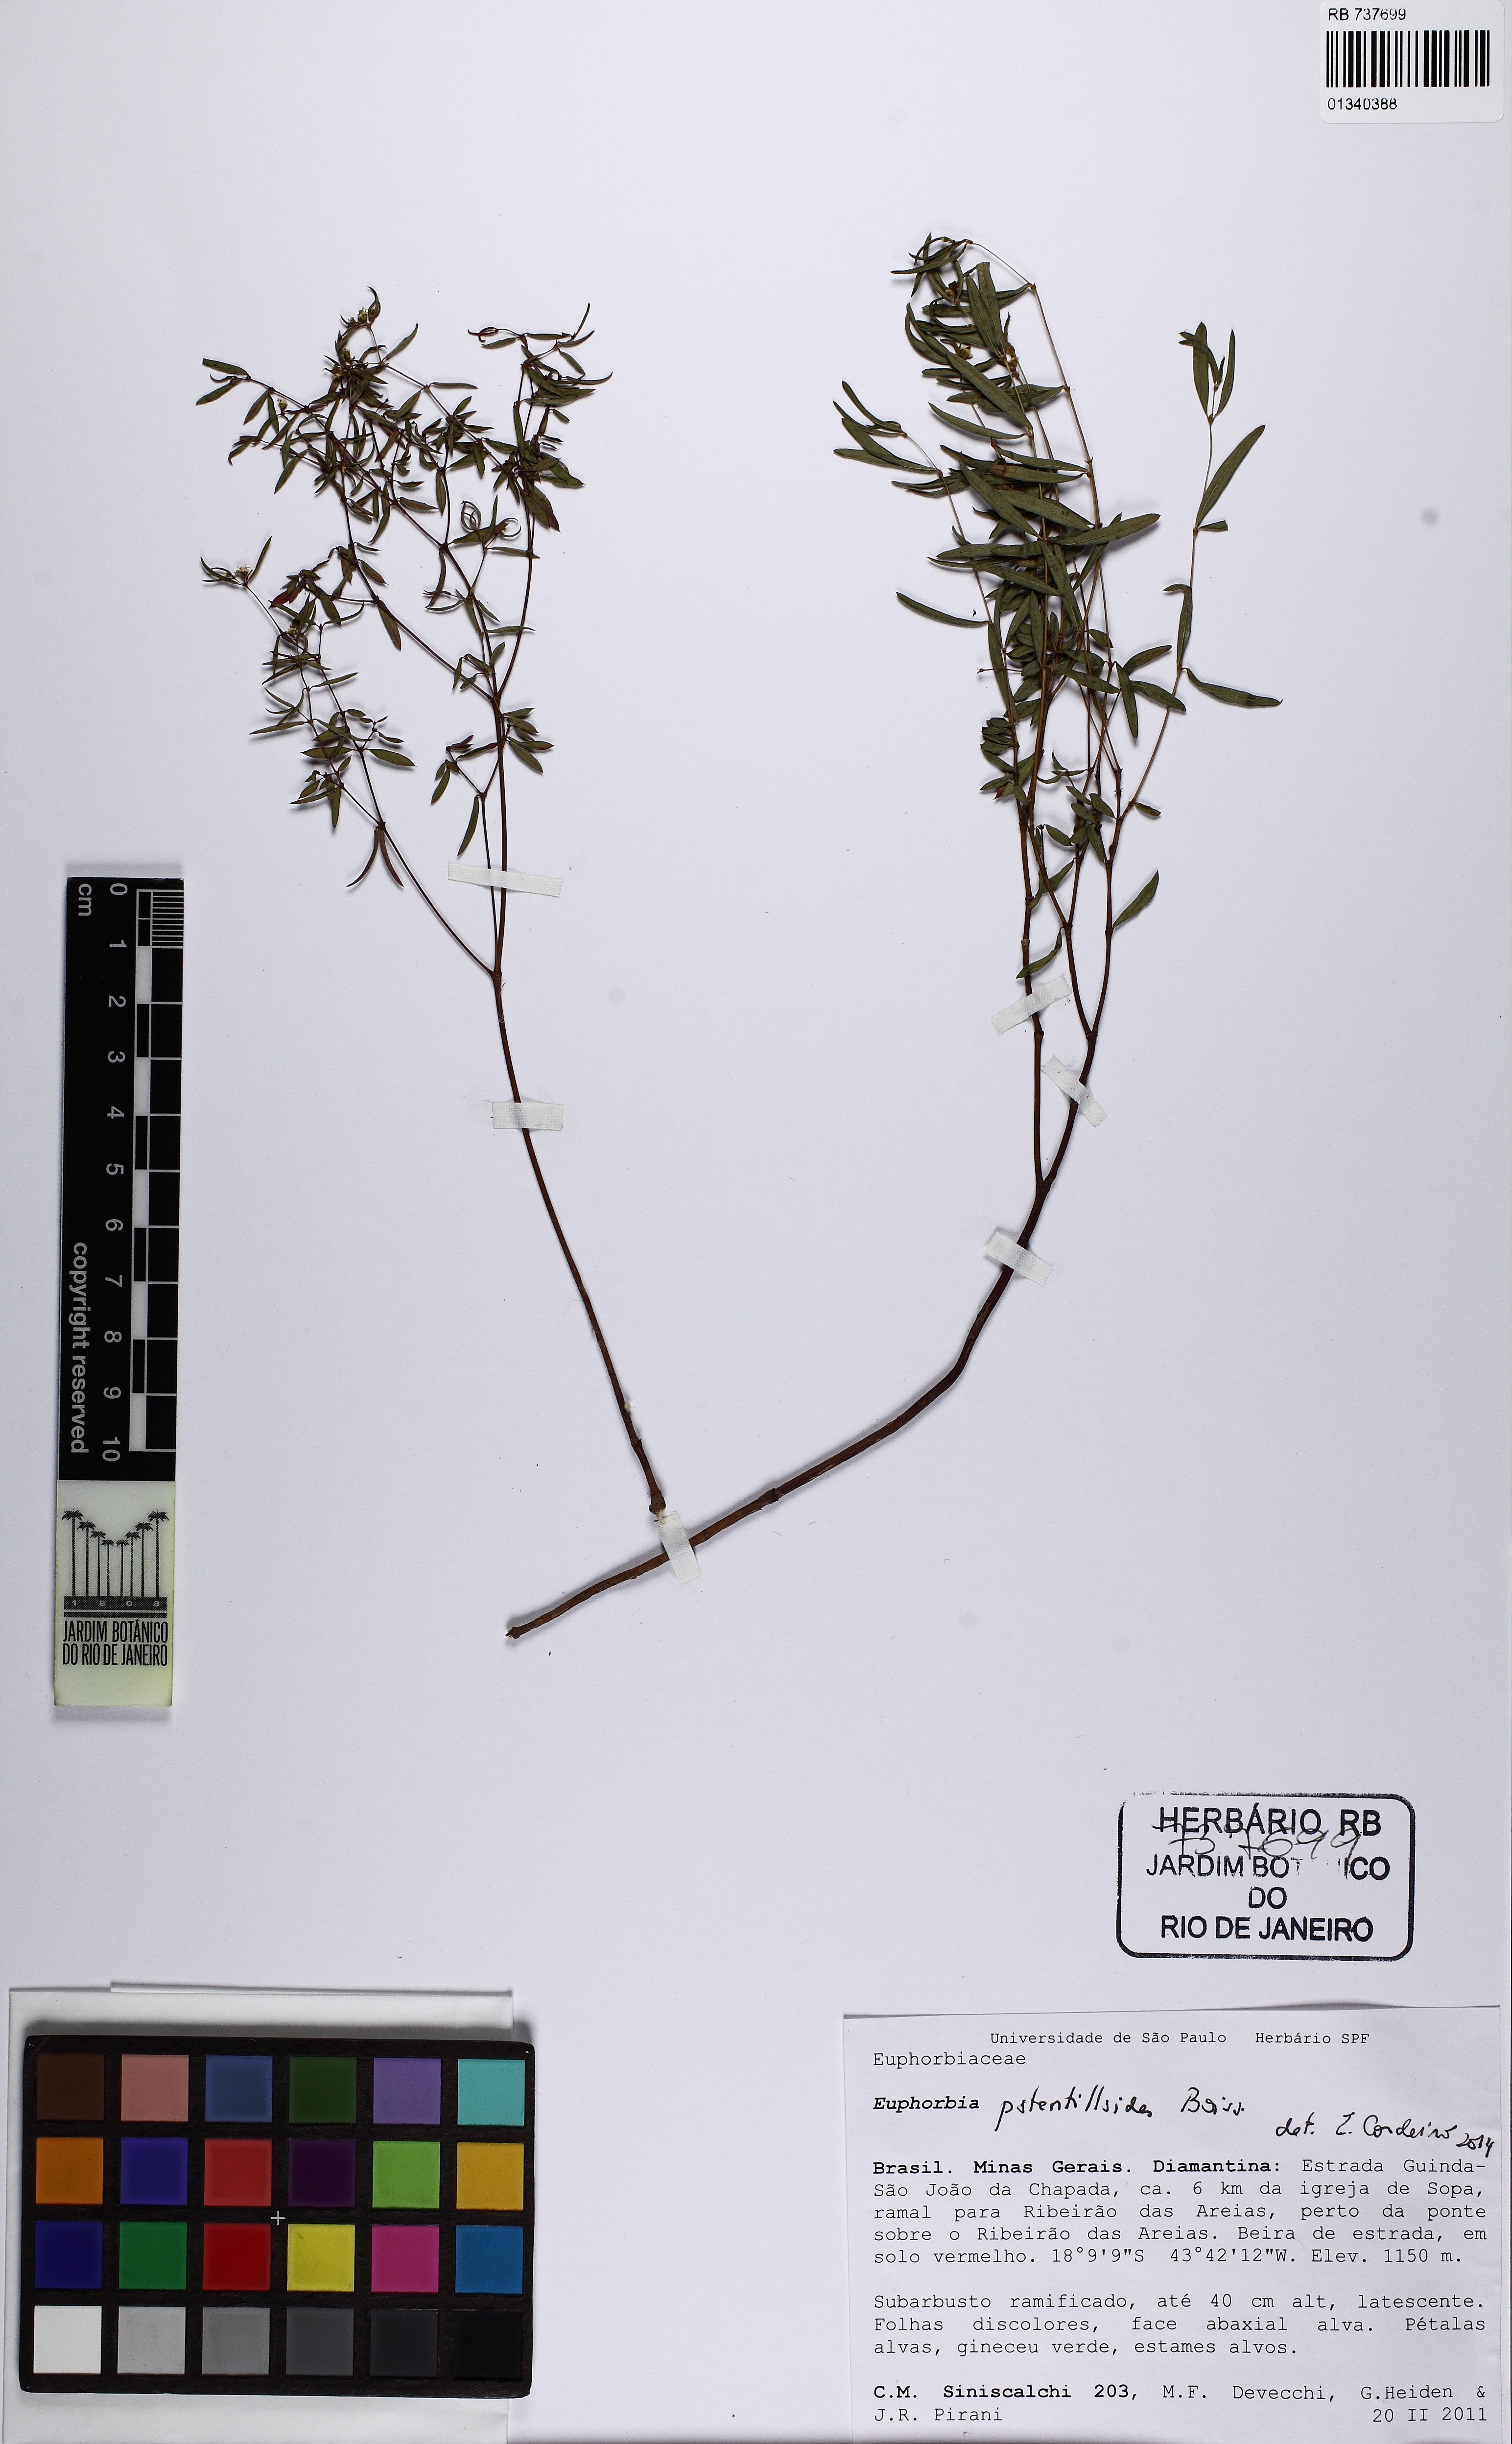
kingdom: Plantae
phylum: Tracheophyta
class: Magnoliopsida
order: Malpighiales
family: Euphorbiaceae
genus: Euphorbia
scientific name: Euphorbia potentilloides
